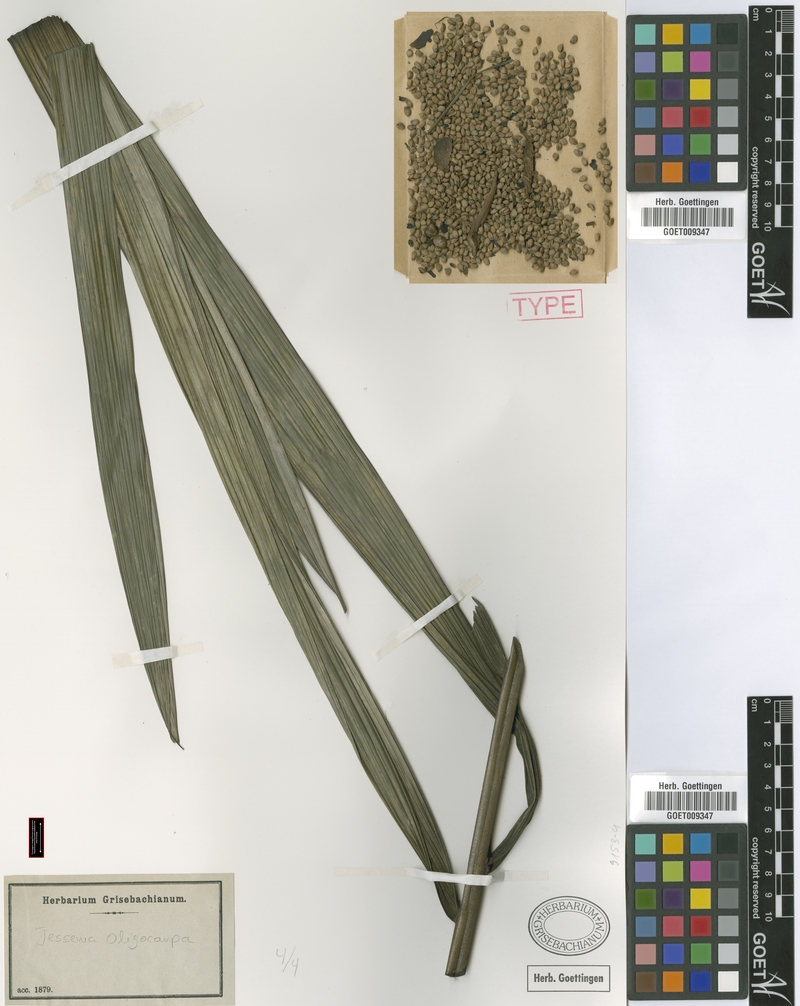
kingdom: Plantae
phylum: Tracheophyta
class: Liliopsida
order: Arecales
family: Arecaceae
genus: Oenocarpus
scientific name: Oenocarpus bataua
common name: Bataua palm
